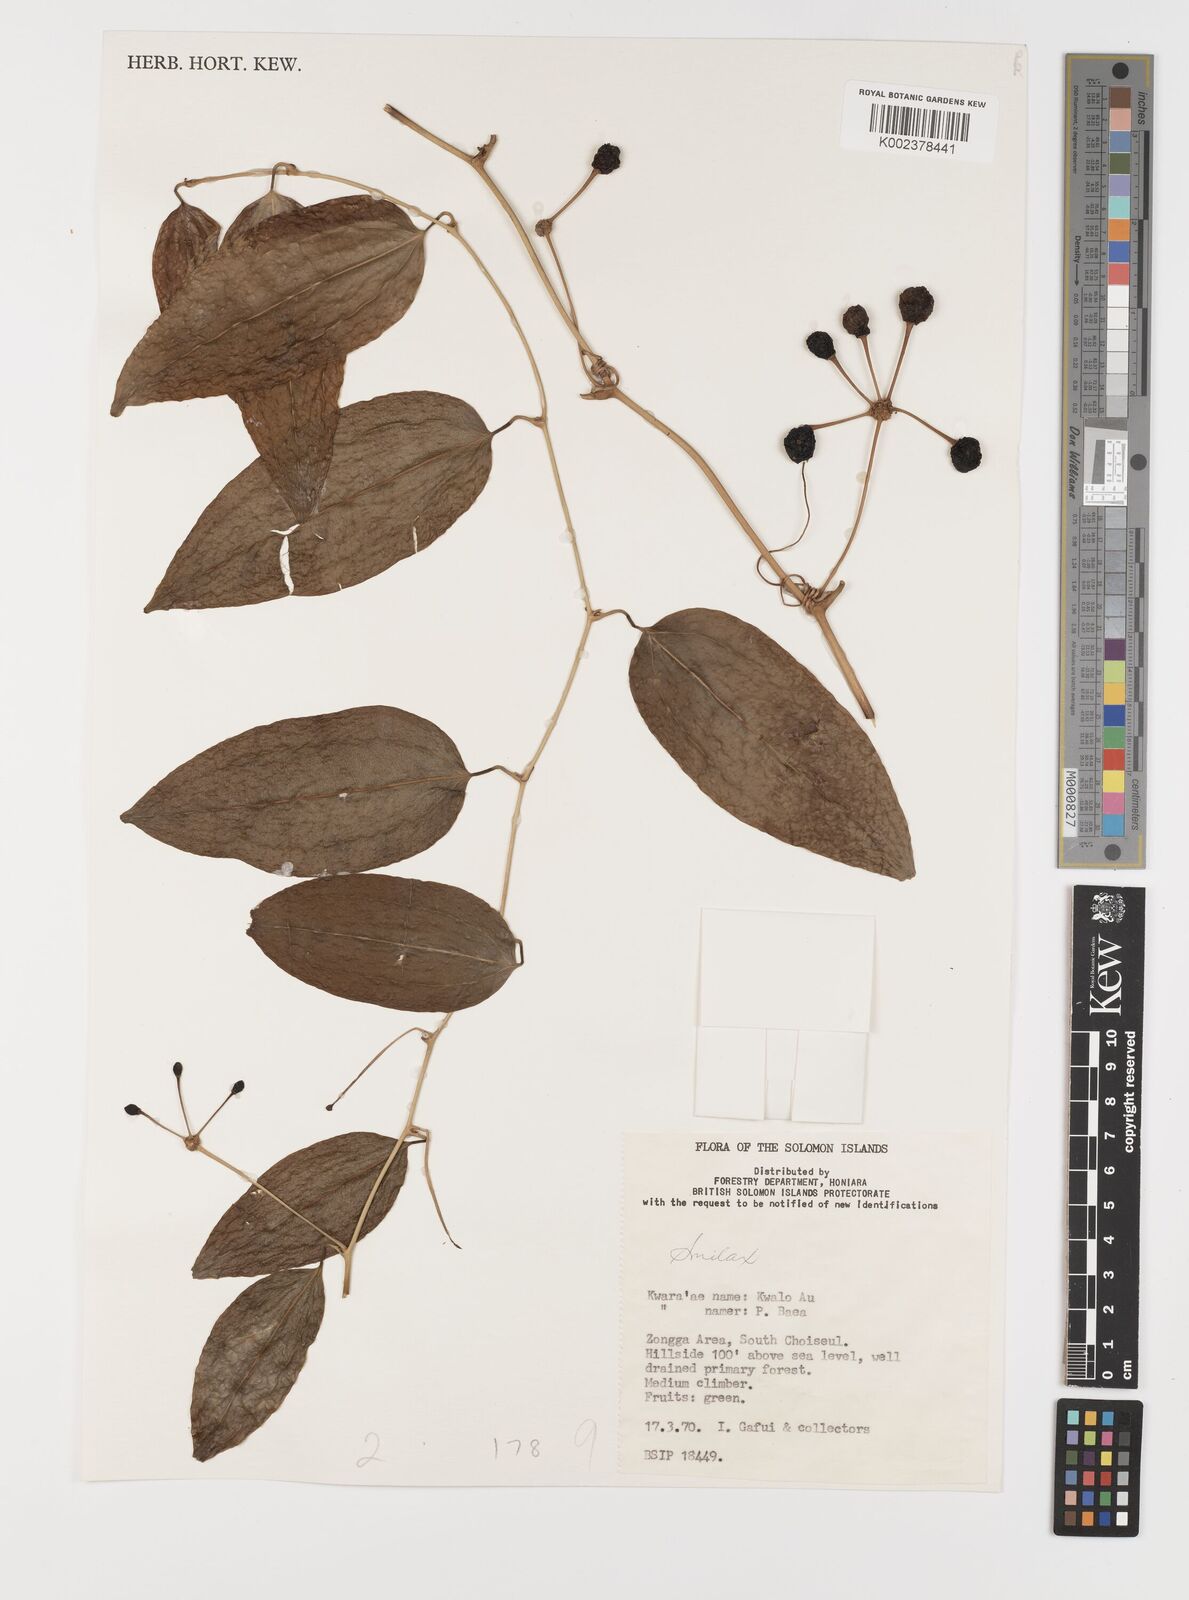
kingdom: Plantae
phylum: Tracheophyta
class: Liliopsida
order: Liliales
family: Smilacaceae
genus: Smilax
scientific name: Smilax
